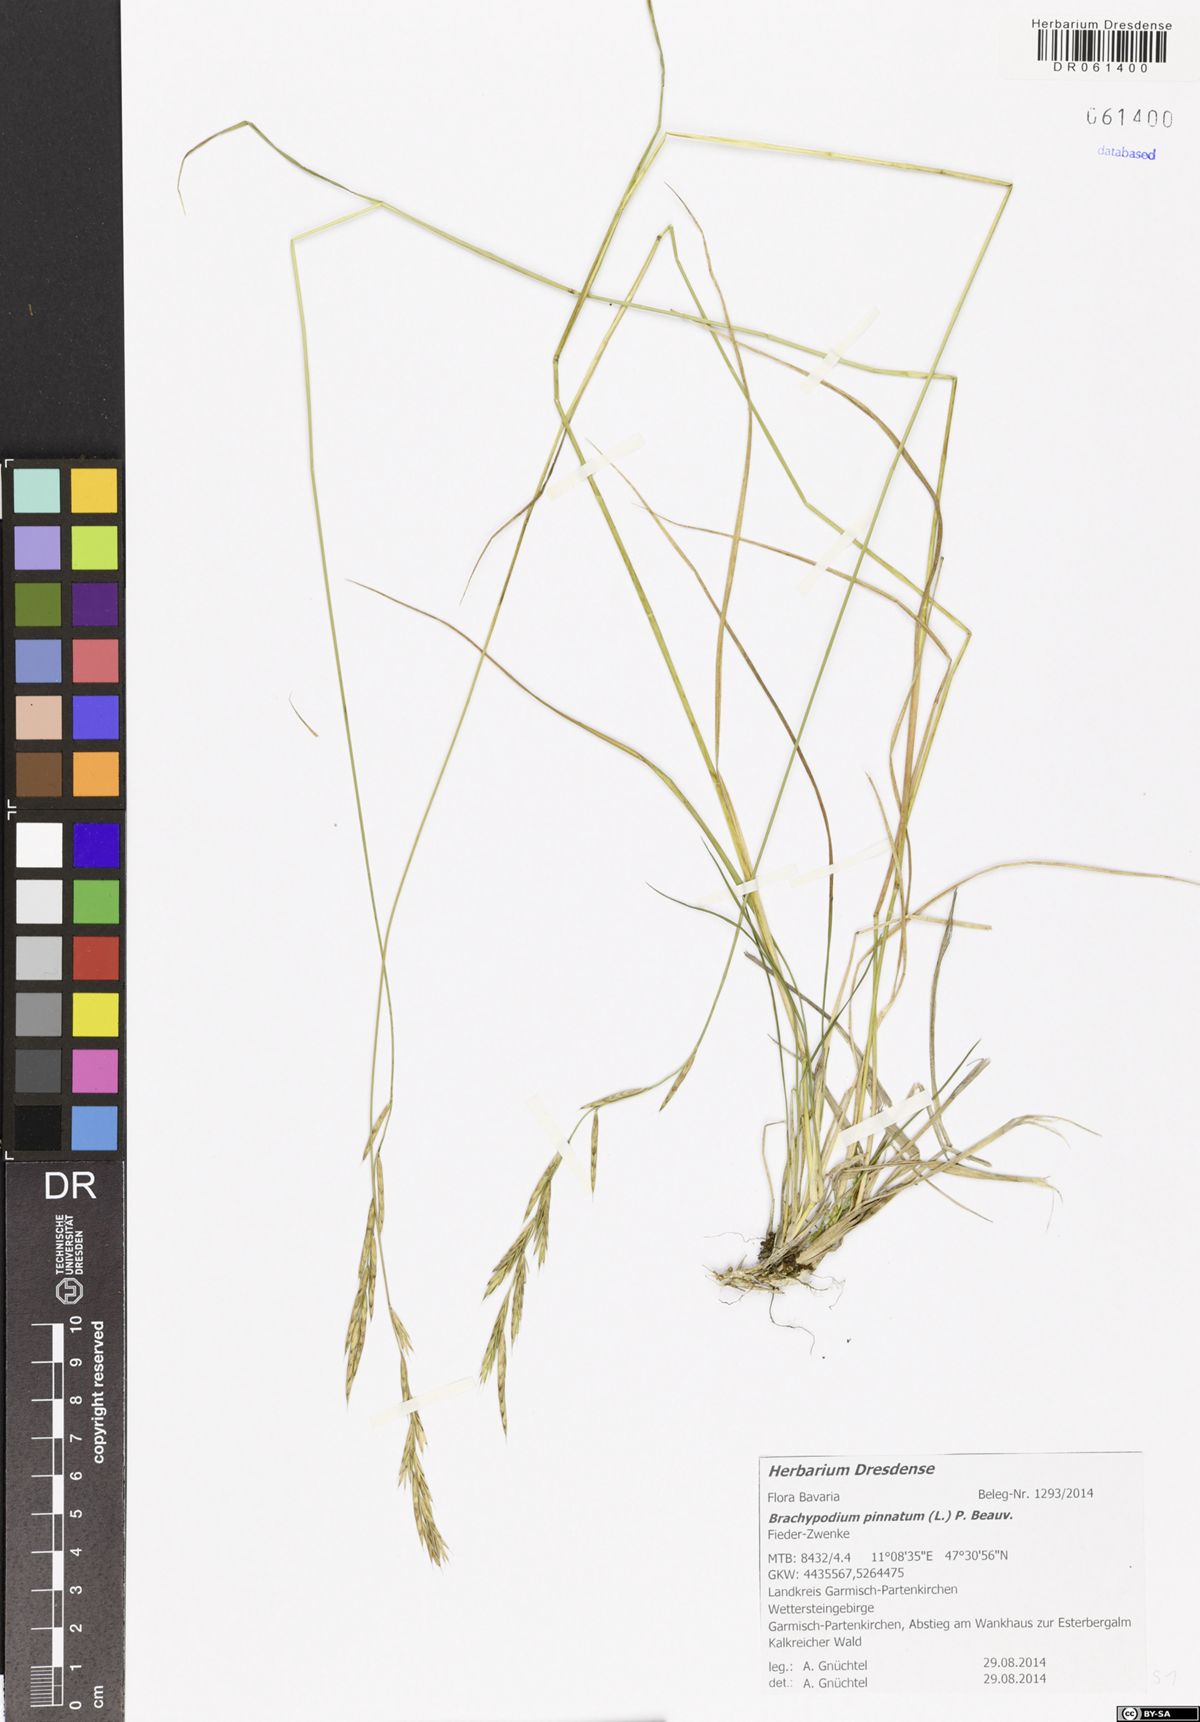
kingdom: Plantae
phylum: Tracheophyta
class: Liliopsida
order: Poales
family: Poaceae
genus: Brachypodium
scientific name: Brachypodium pinnatum
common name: Tor grass
